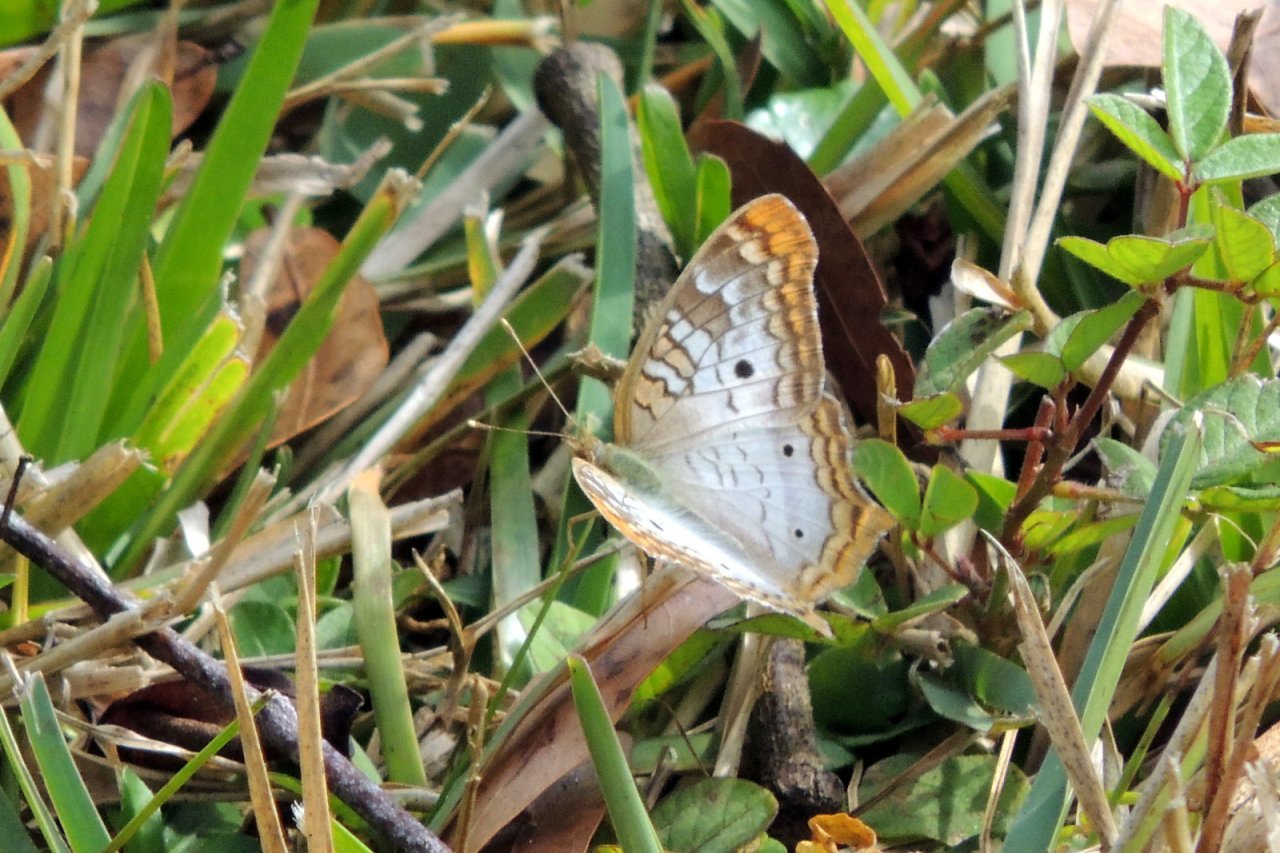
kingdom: Animalia
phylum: Arthropoda
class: Insecta
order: Lepidoptera
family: Nymphalidae
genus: Anartia
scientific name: Anartia jatrophae
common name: White Peacock
